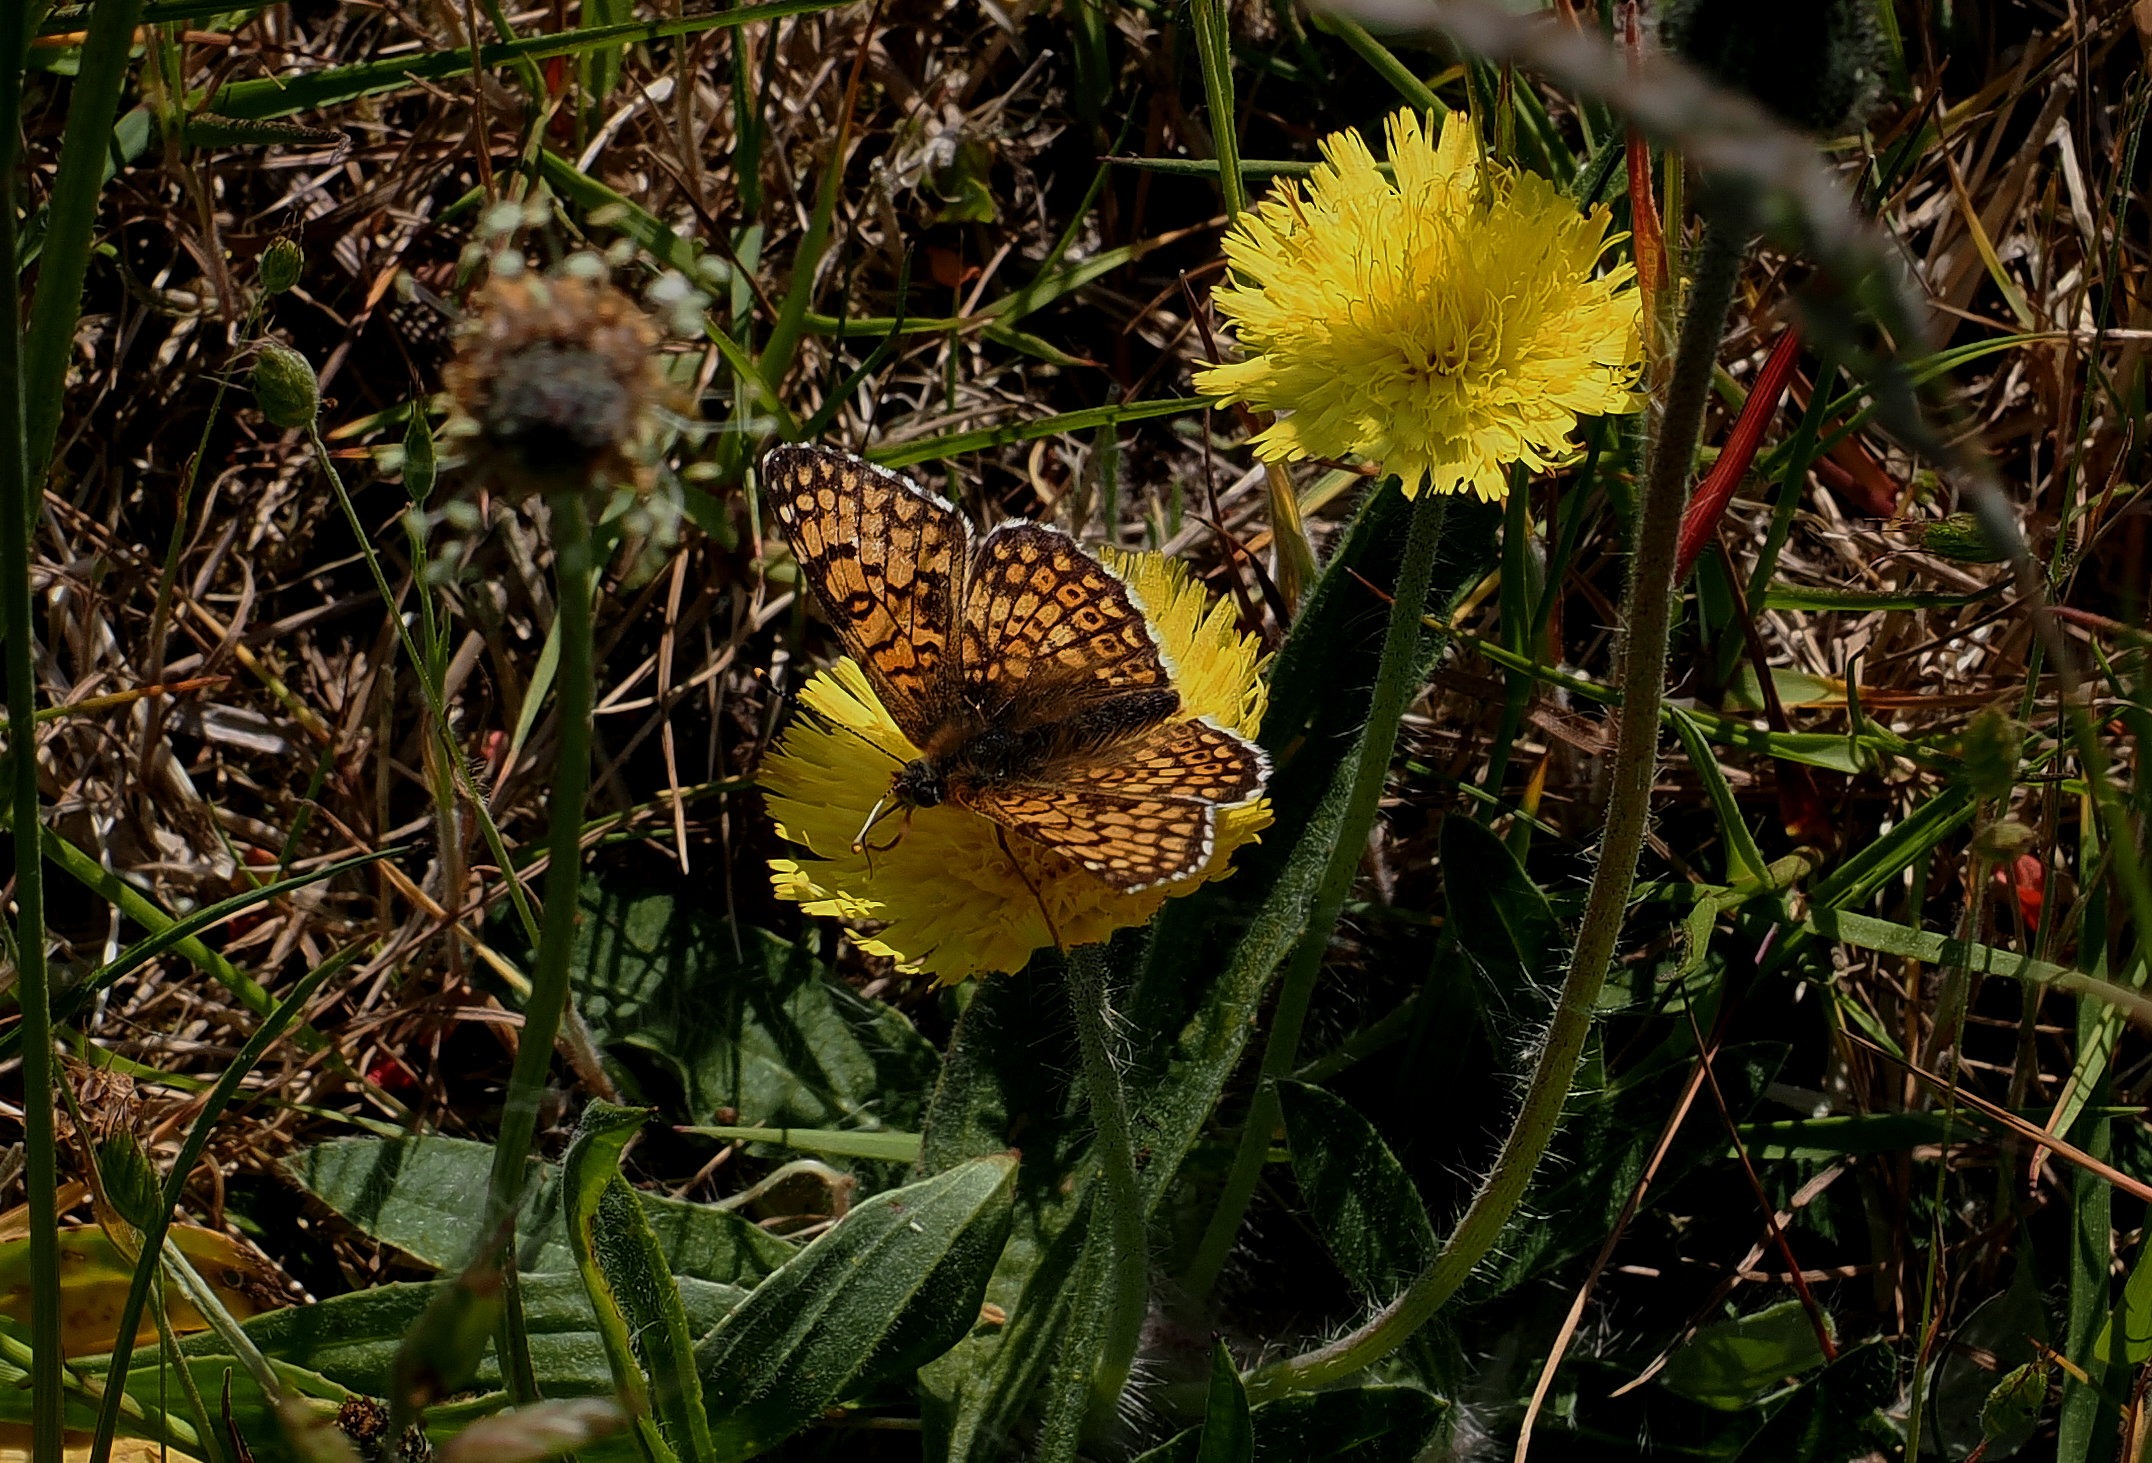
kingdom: Animalia
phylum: Arthropoda
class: Insecta
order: Lepidoptera
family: Nymphalidae
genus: Melitaea
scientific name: Melitaea cinxia
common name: Okkergul pletvinge
